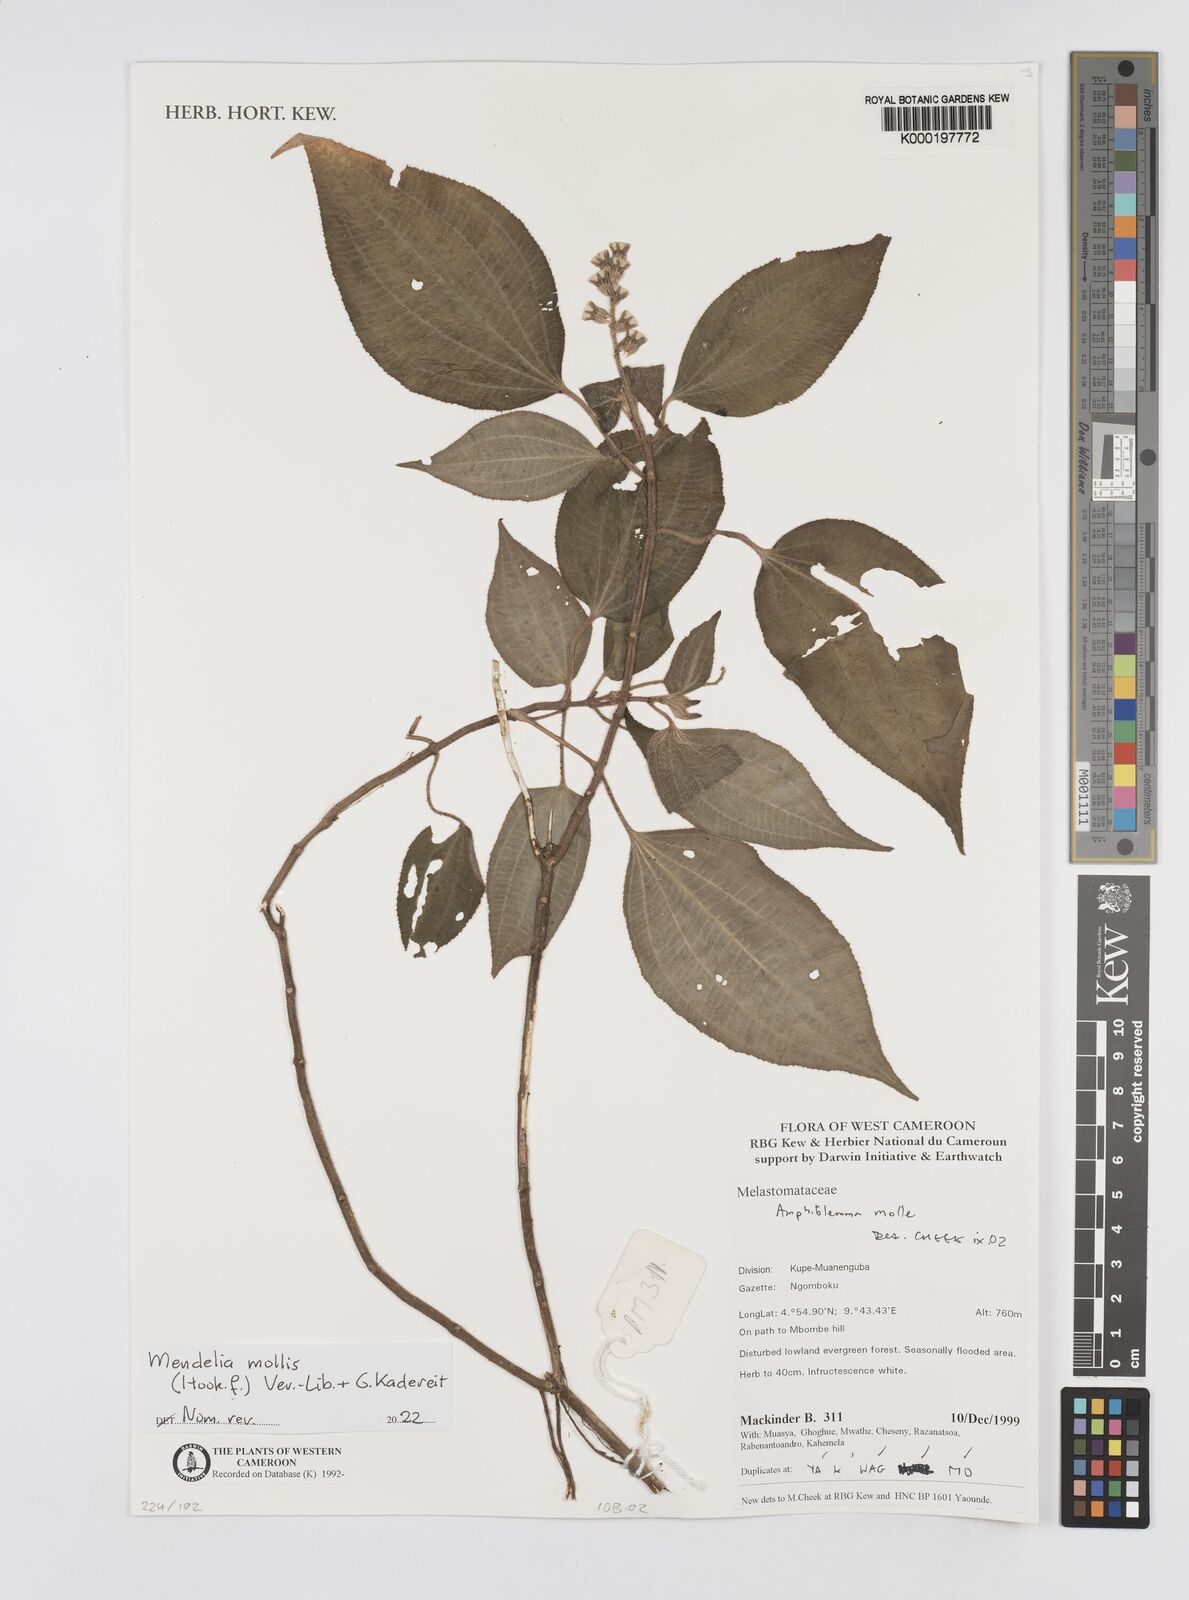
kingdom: Plantae
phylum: Tracheophyta
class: Magnoliopsida
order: Myrtales
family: Melastomataceae
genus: Amphiblemma
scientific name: Amphiblemma molle
